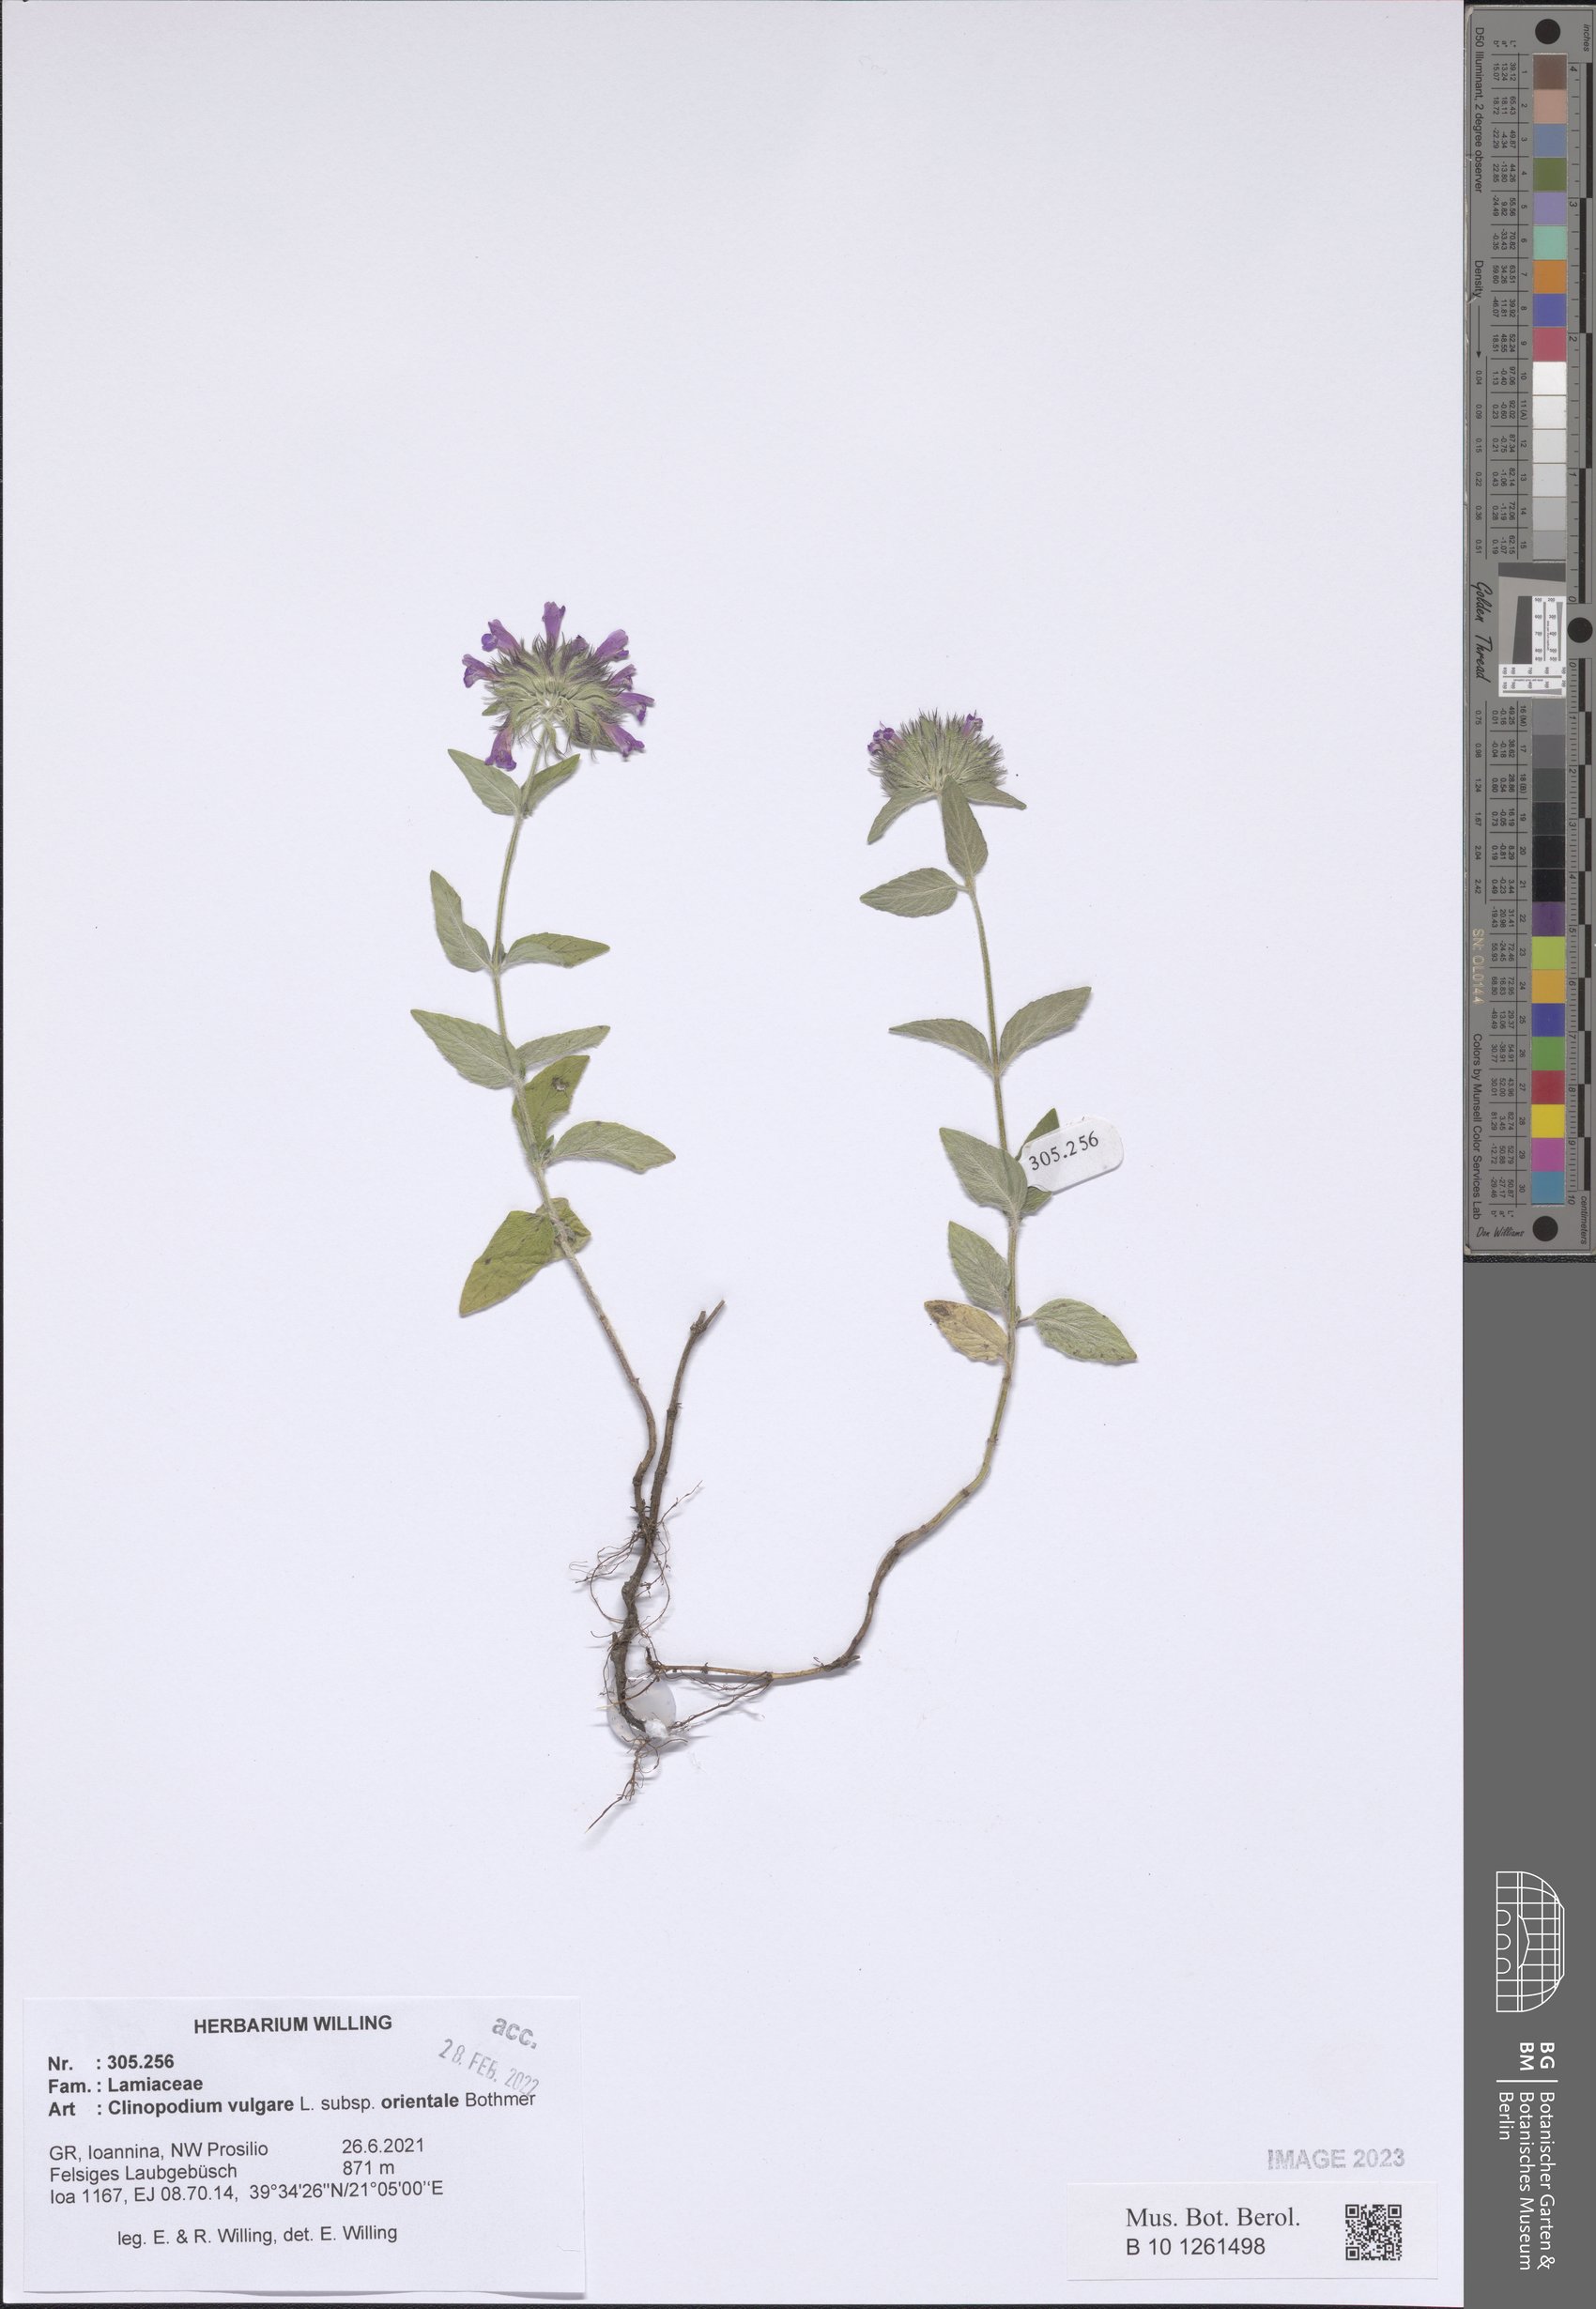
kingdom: Plantae
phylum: Tracheophyta
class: Magnoliopsida
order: Lamiales
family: Lamiaceae
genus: Clinopodium
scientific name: Clinopodium vulgare
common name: Wild basil
